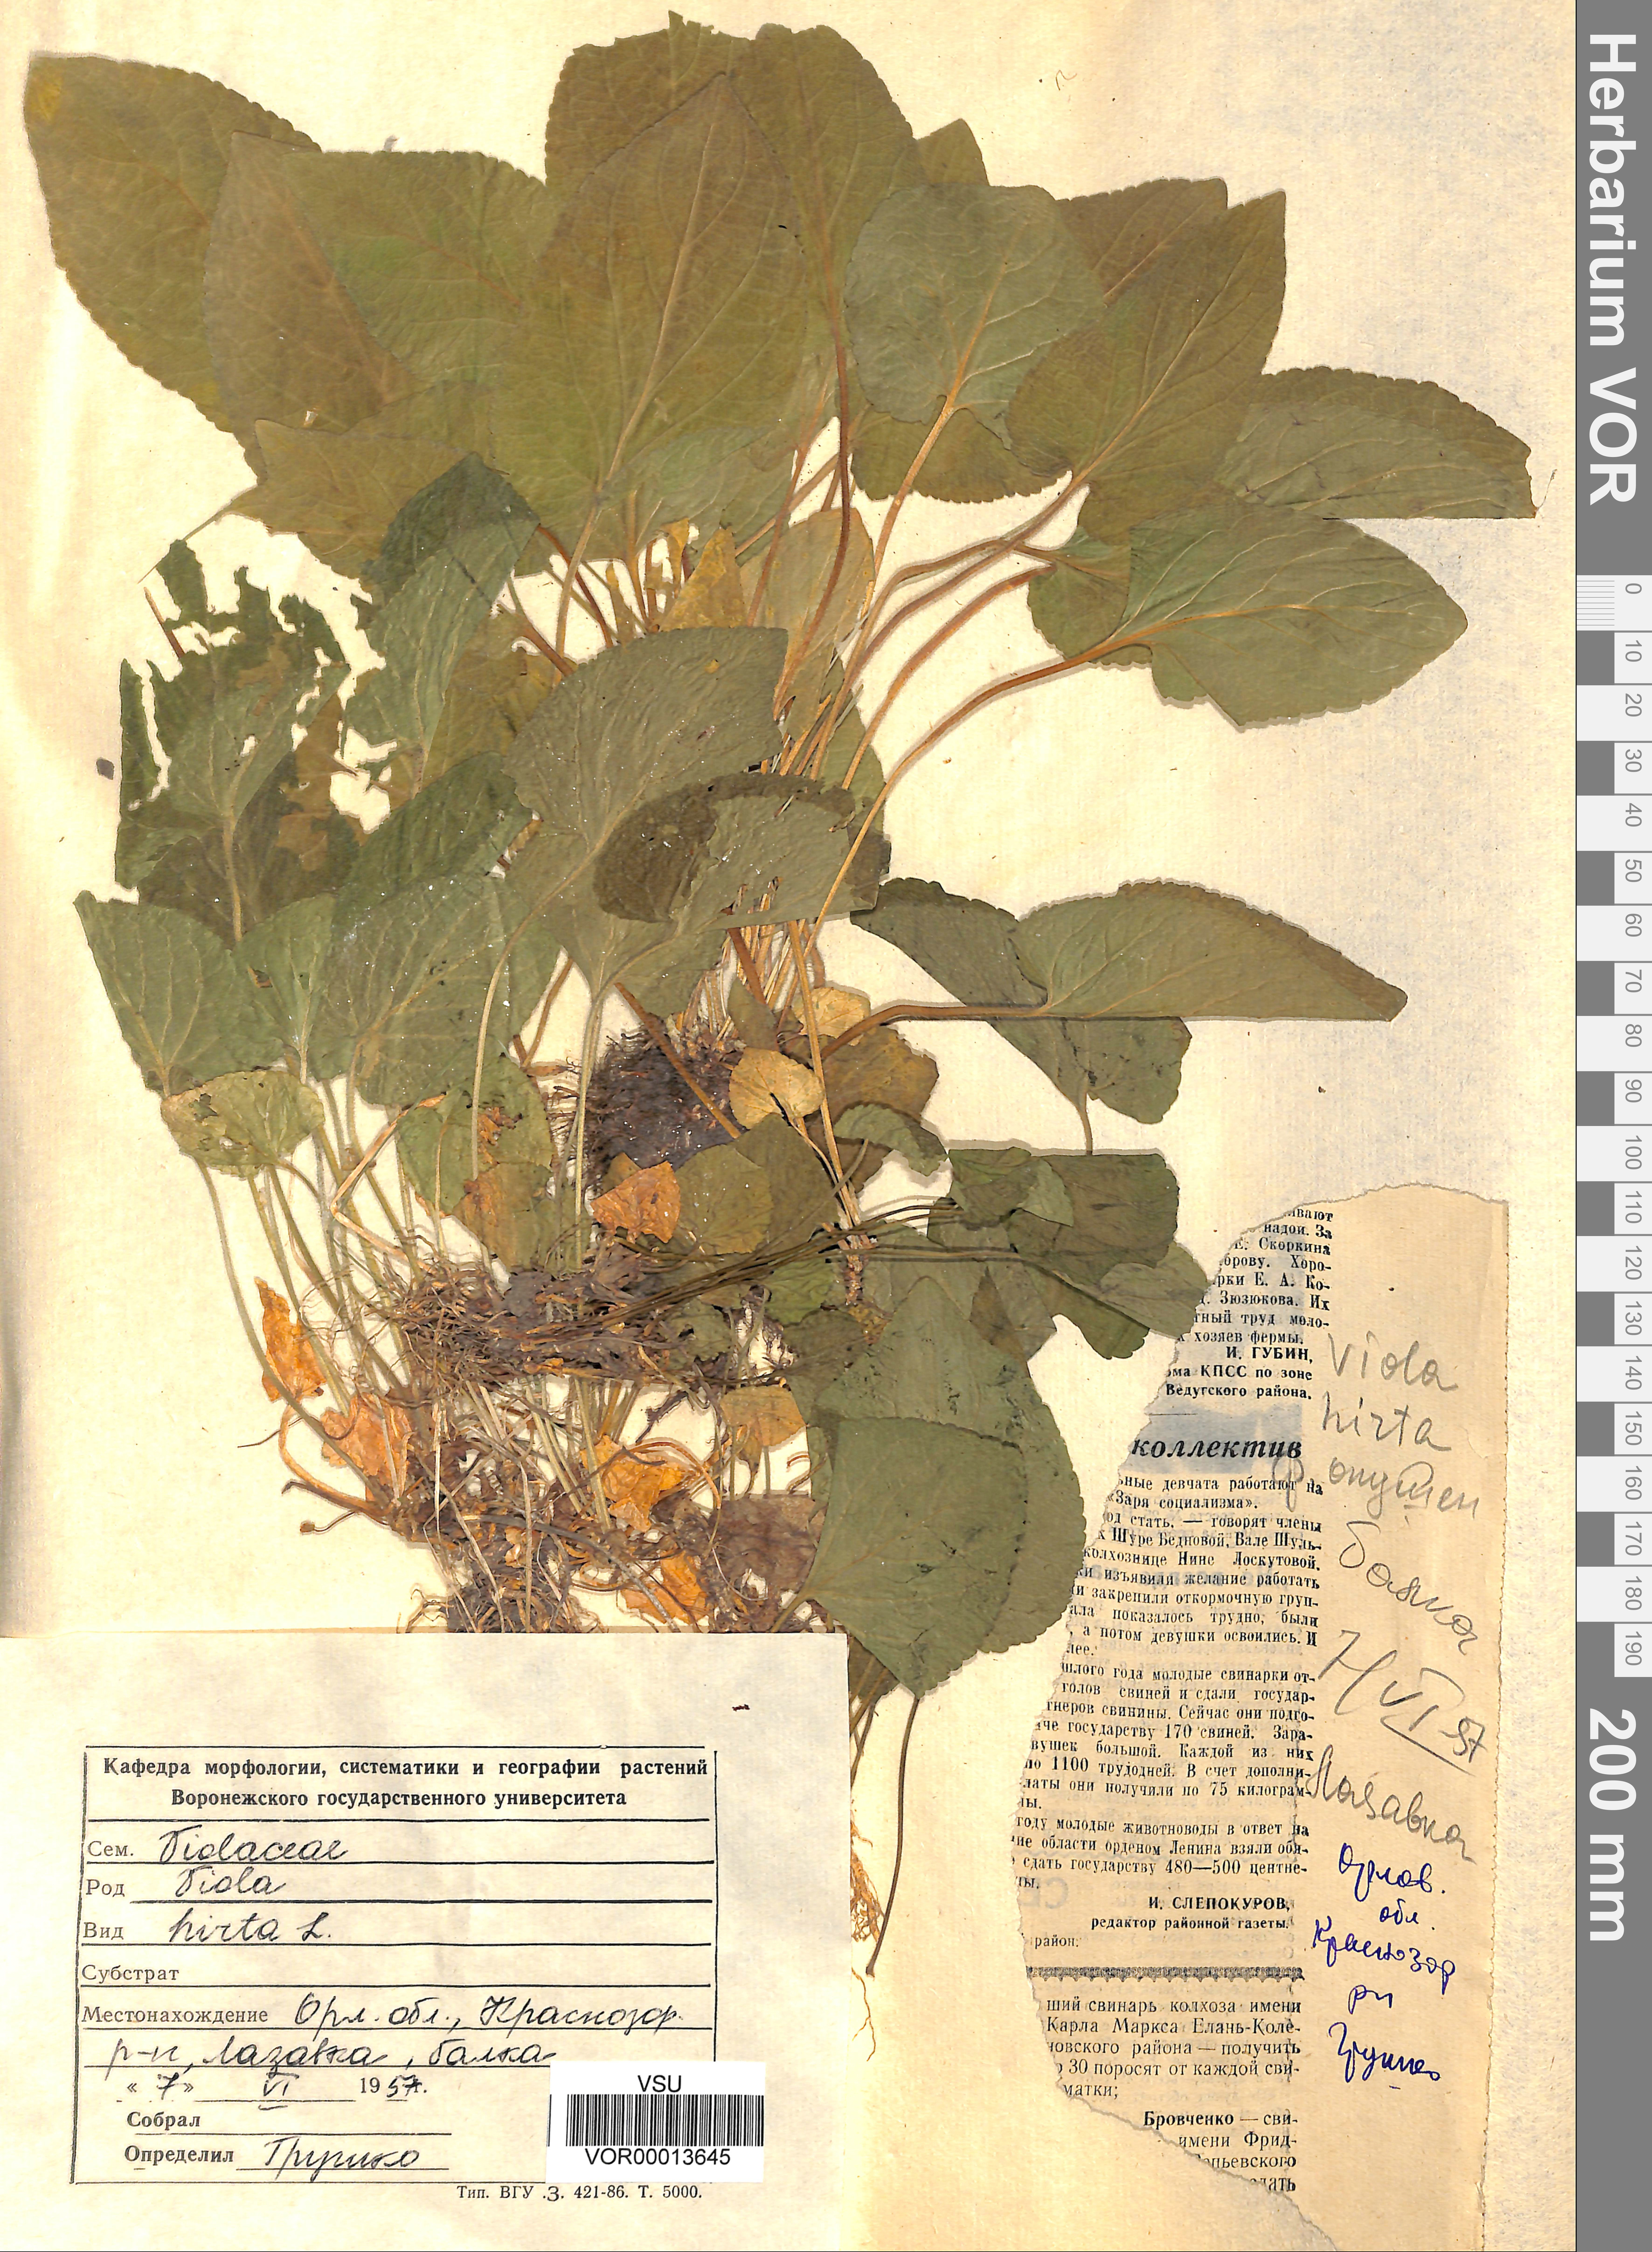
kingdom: Plantae
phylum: Tracheophyta
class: Magnoliopsida
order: Malpighiales
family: Violaceae
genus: Viola
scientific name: Viola hirta
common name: Hairy violet
